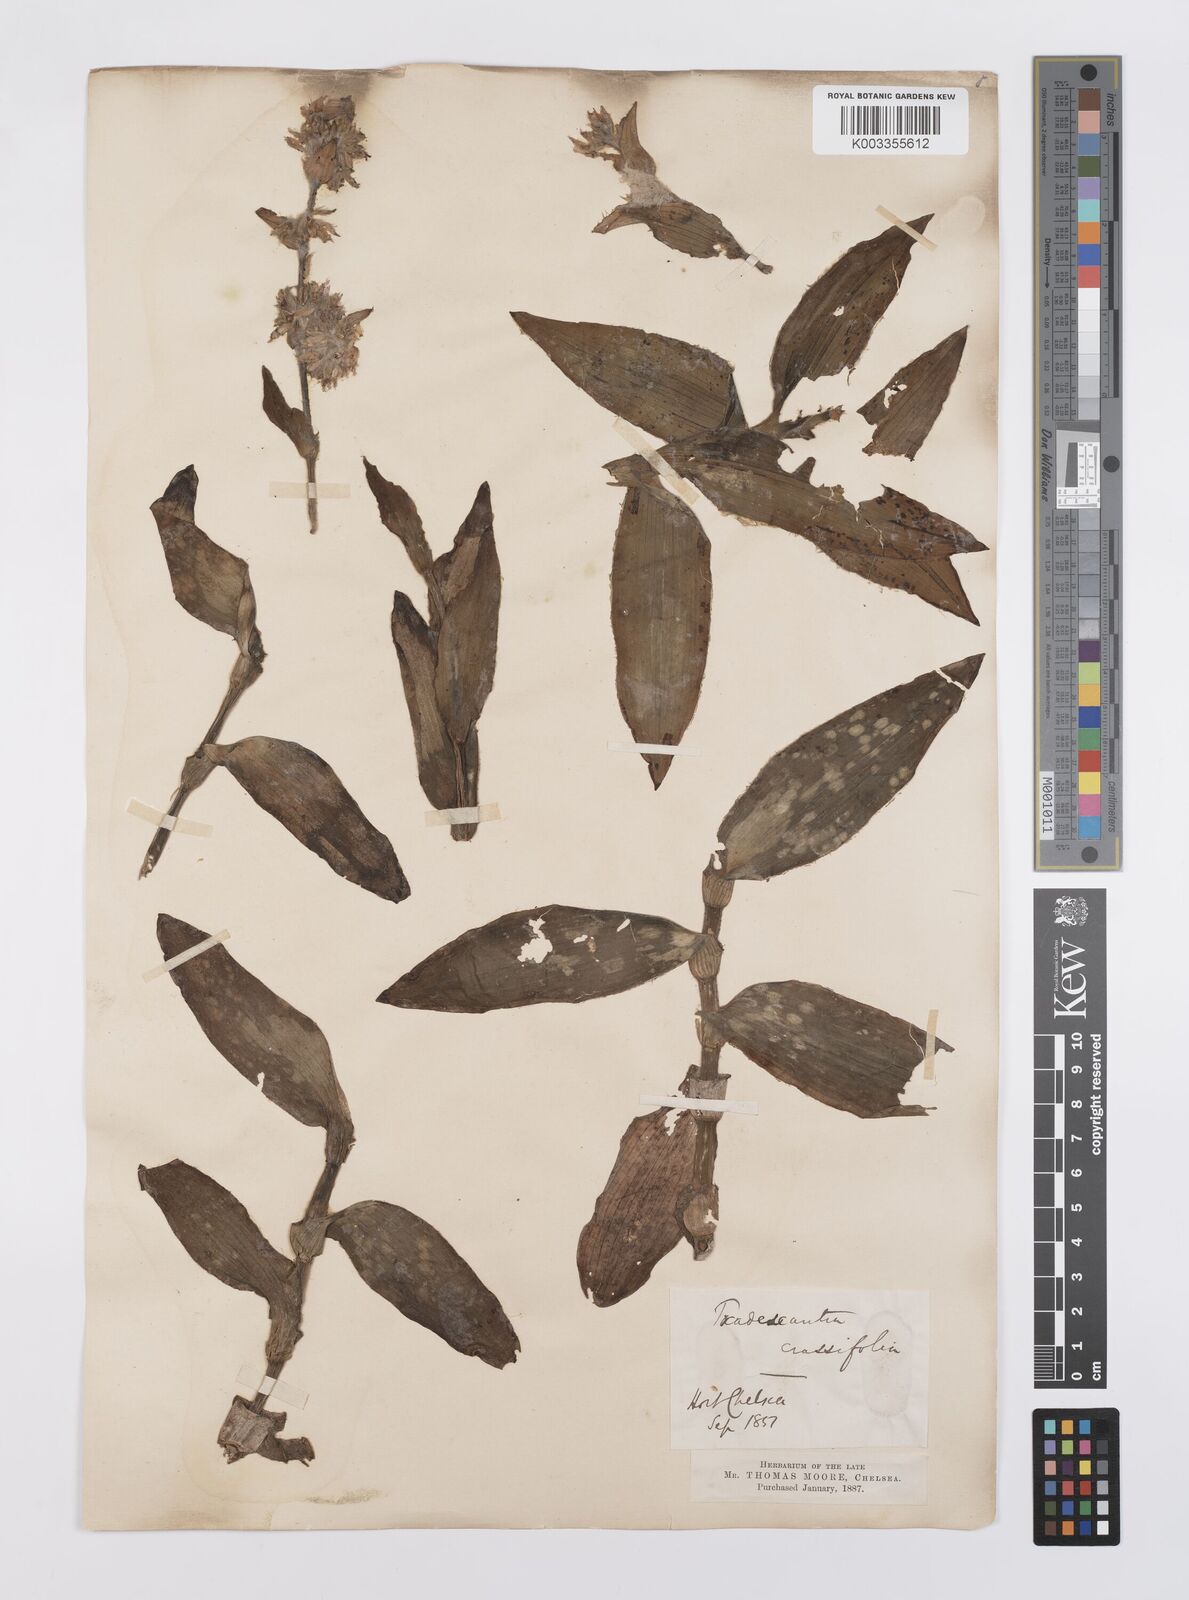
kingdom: Plantae
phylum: Tracheophyta
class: Liliopsida
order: Commelinales
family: Commelinaceae
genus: Tradescantia
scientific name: Tradescantia crassifolia
